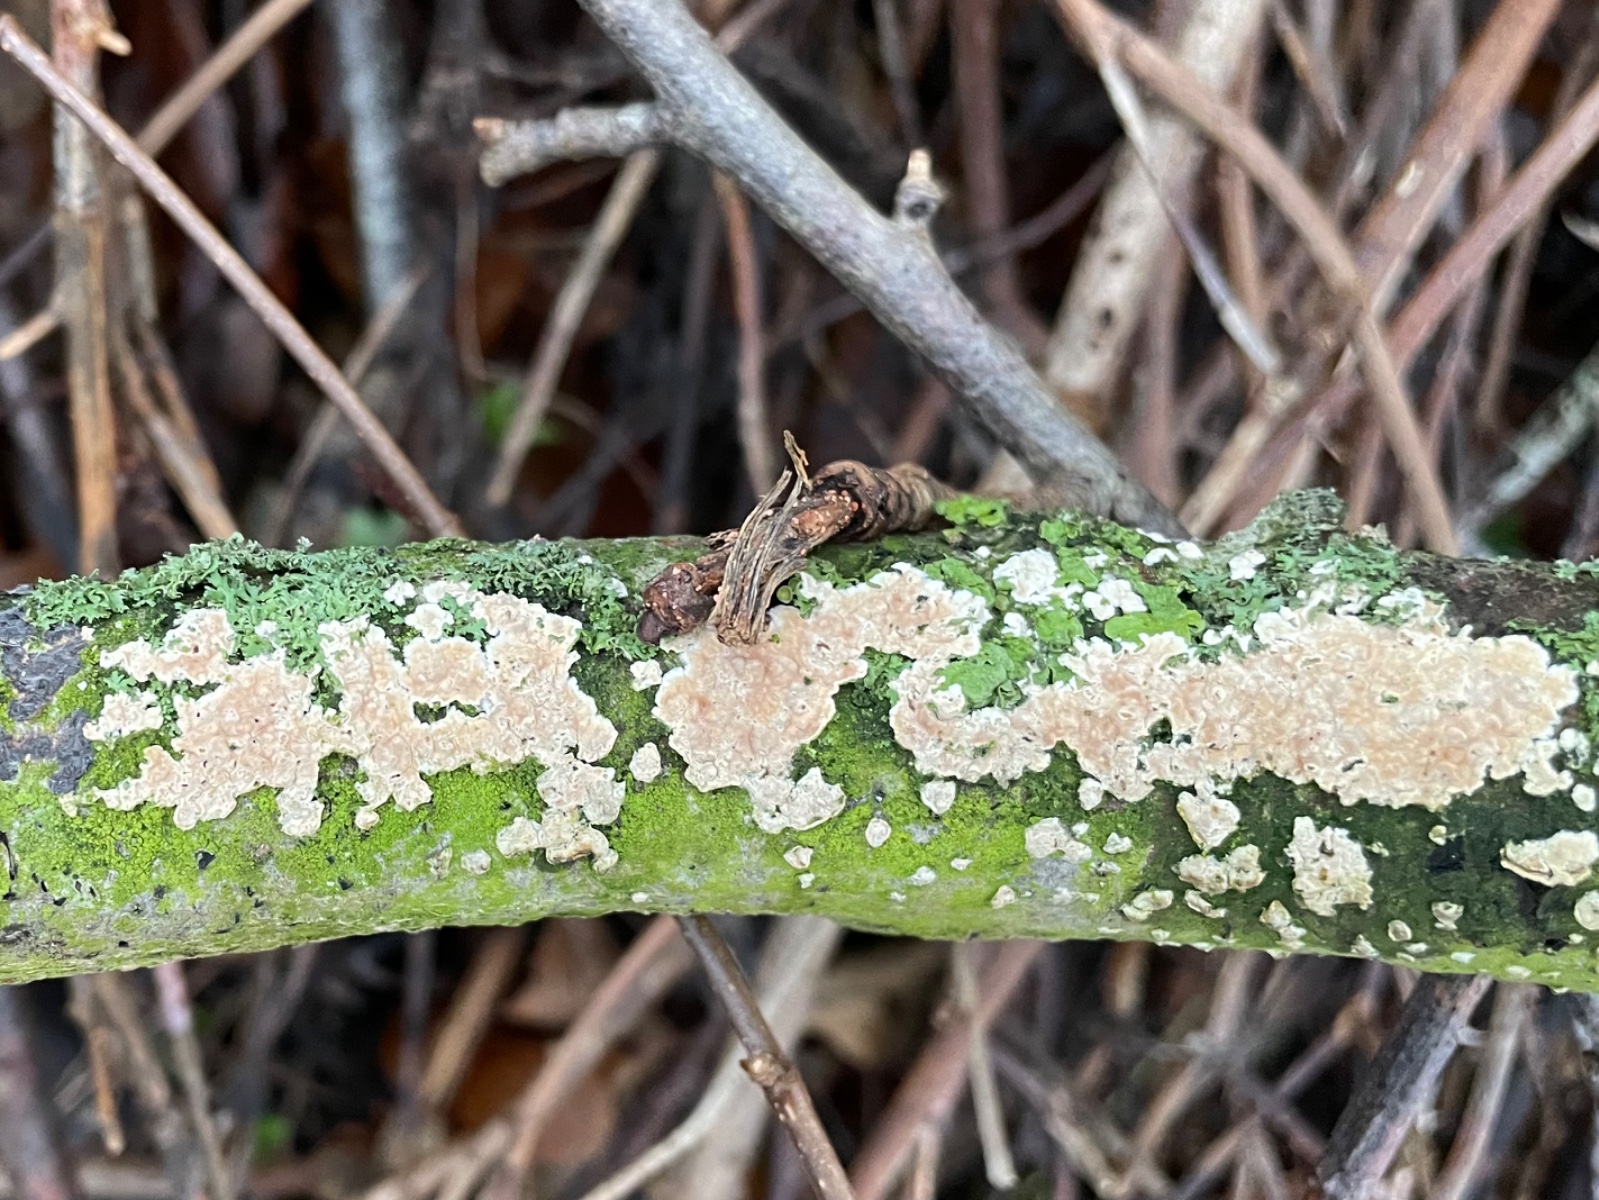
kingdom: Fungi
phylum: Basidiomycota
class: Agaricomycetes
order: Agaricales
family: Physalacriaceae
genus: Cylindrobasidium
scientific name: Cylindrobasidium
